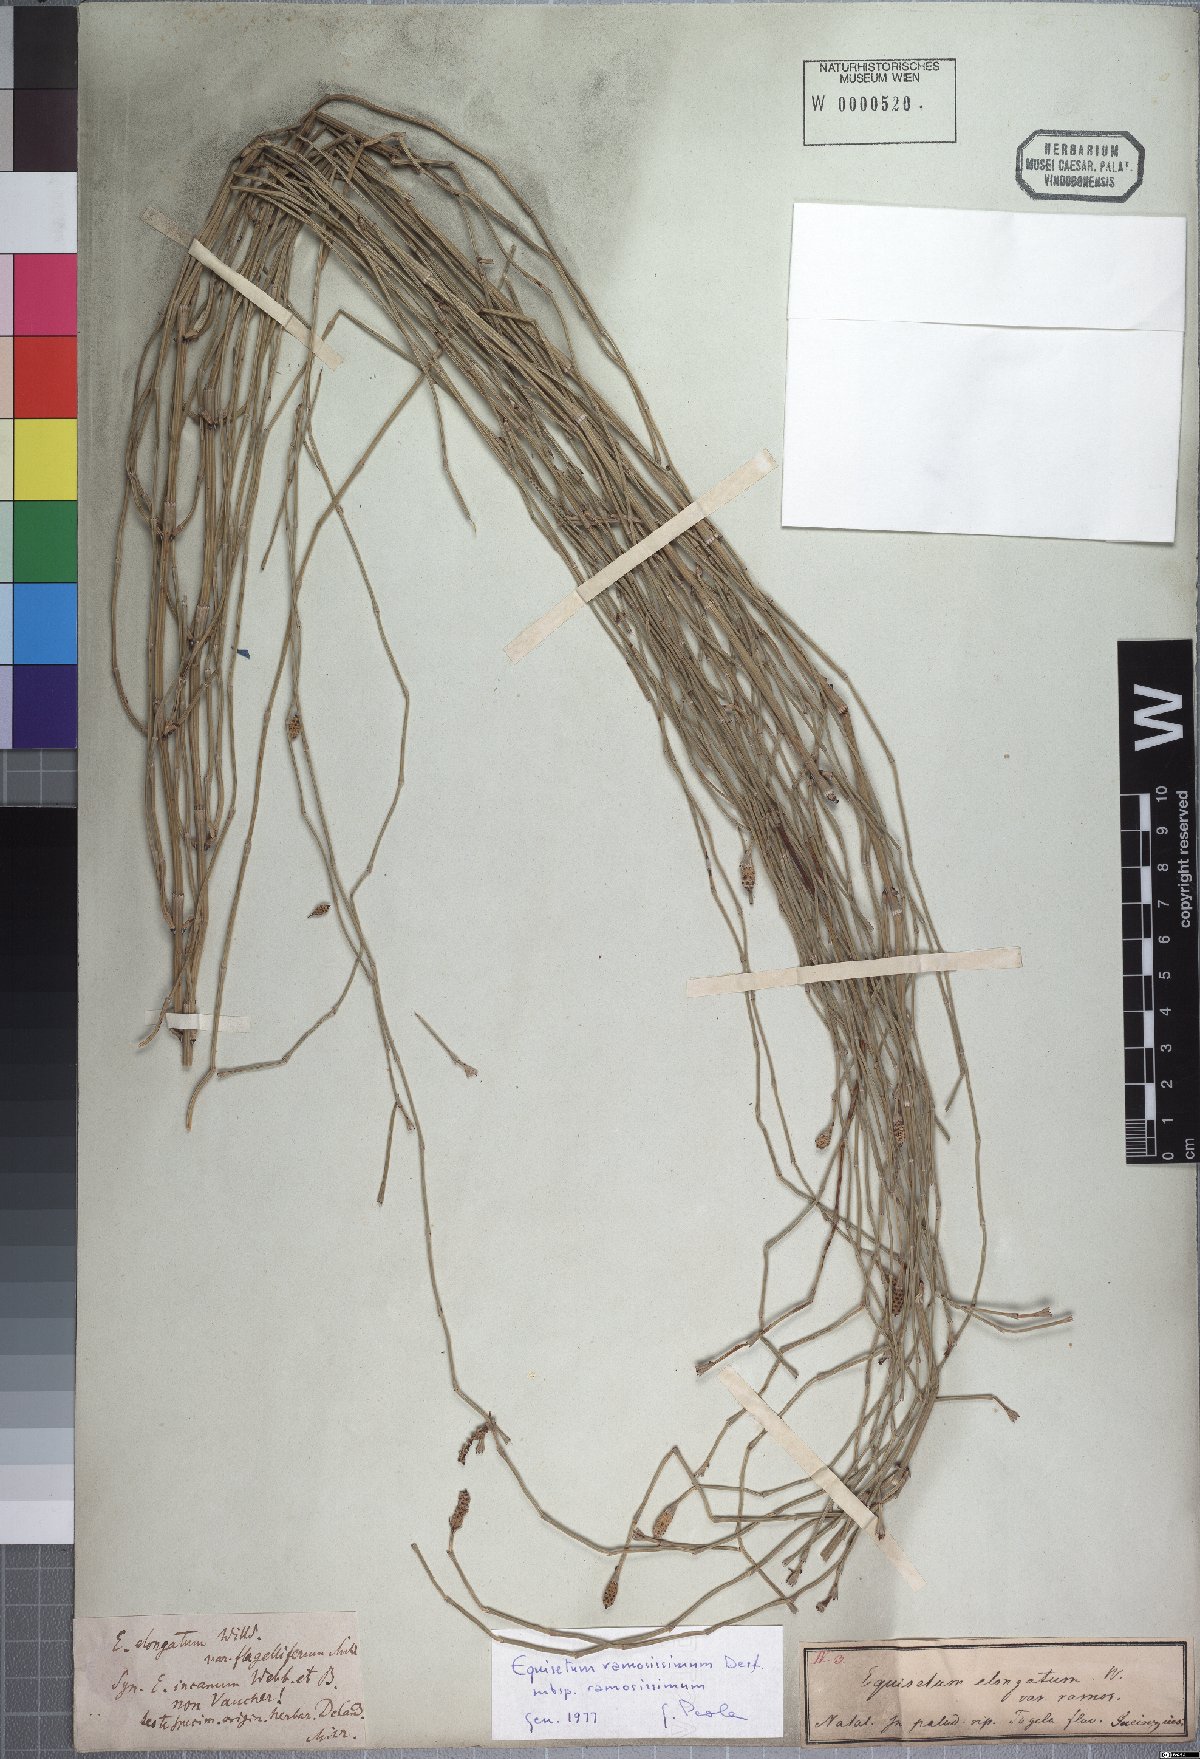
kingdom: Plantae
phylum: Tracheophyta
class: Polypodiopsida
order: Equisetales
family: Equisetaceae
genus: Equisetum
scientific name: Equisetum ramosissimum
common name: Branched horsetail
